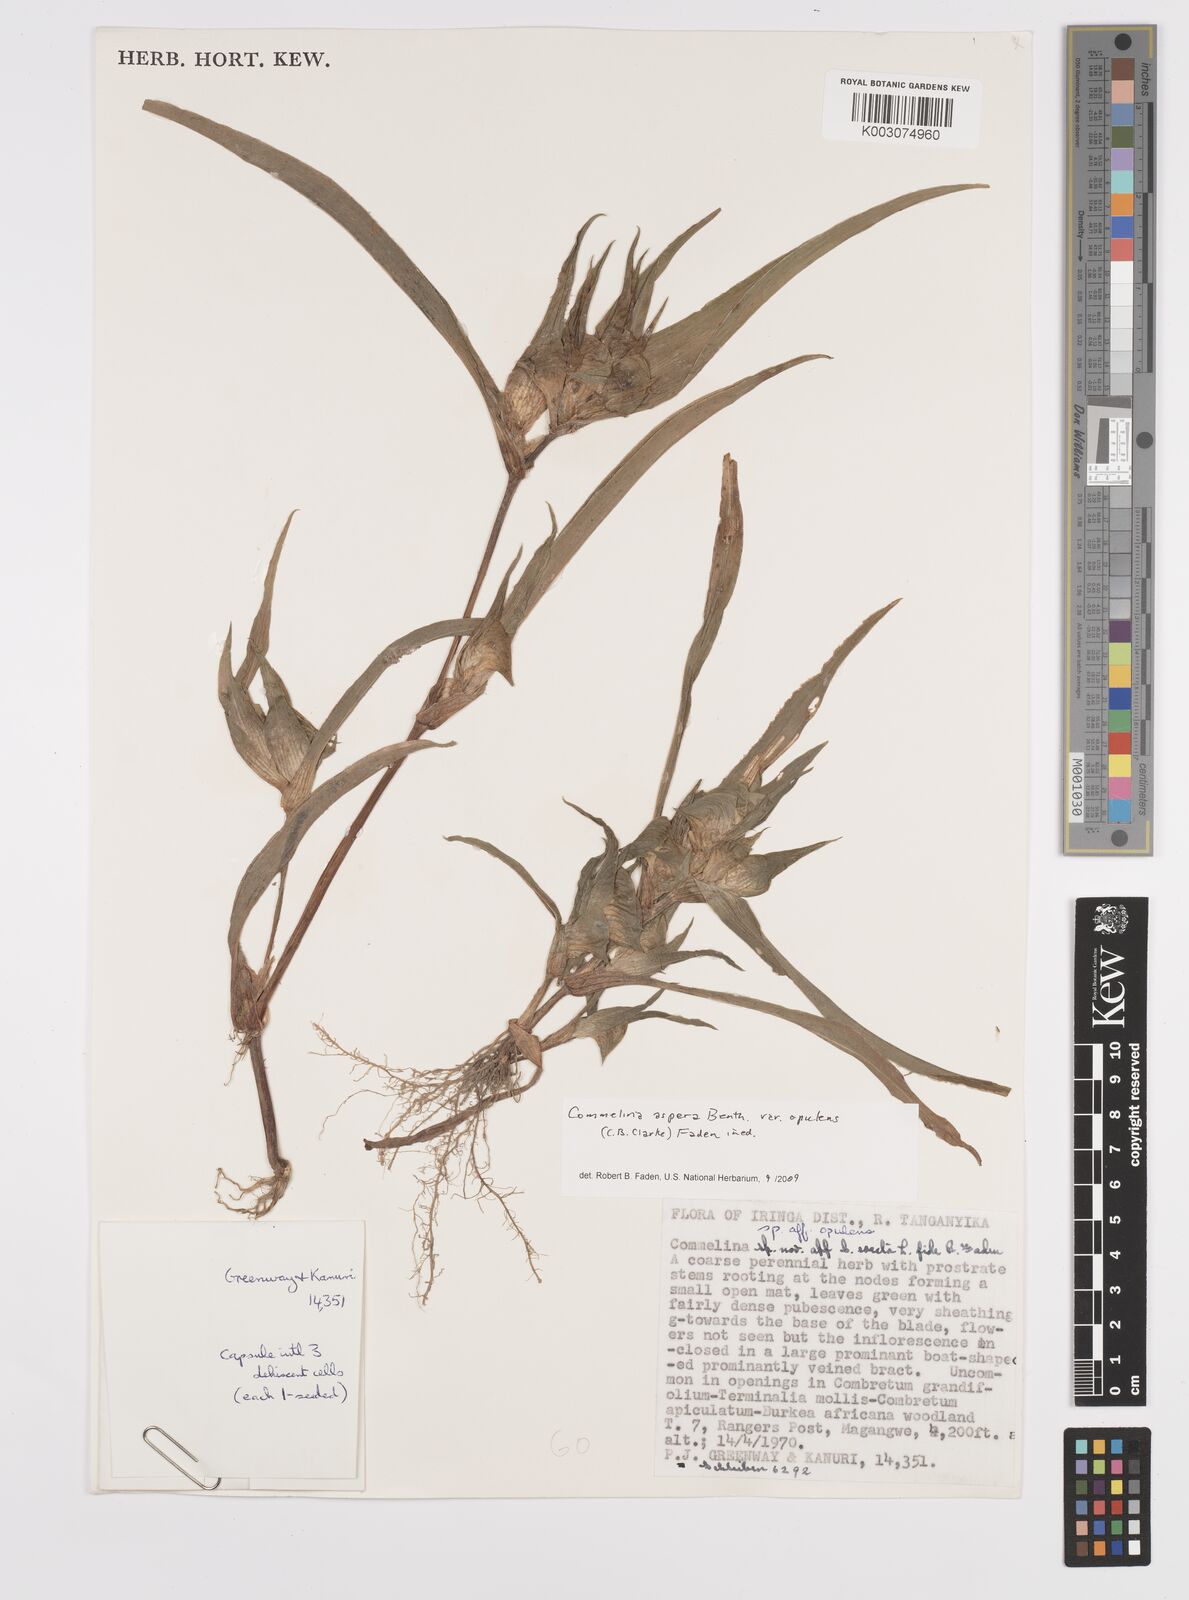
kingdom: Plantae
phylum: Tracheophyta
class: Liliopsida
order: Commelinales
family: Commelinaceae
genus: Commelina
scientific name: Commelina aspera
